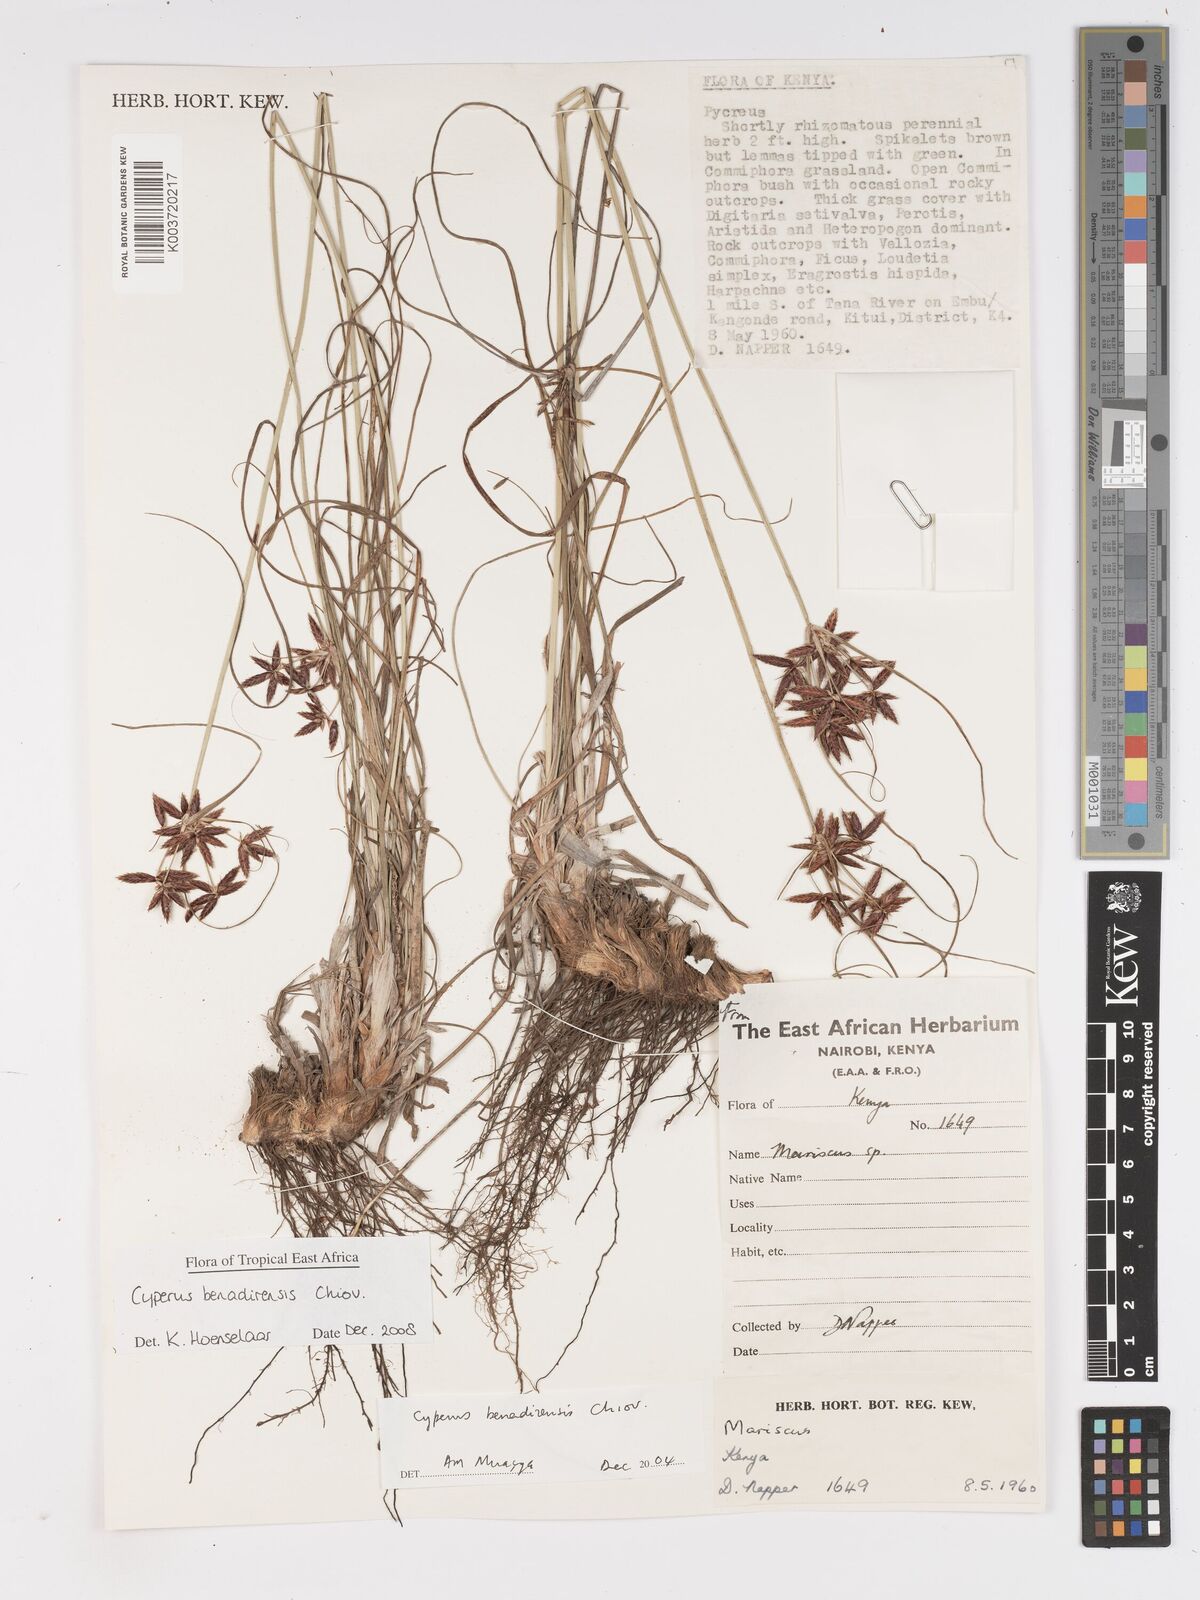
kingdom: Plantae
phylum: Tracheophyta
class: Liliopsida
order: Poales
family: Cyperaceae
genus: Cyperus
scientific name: Cyperus benadirensis
